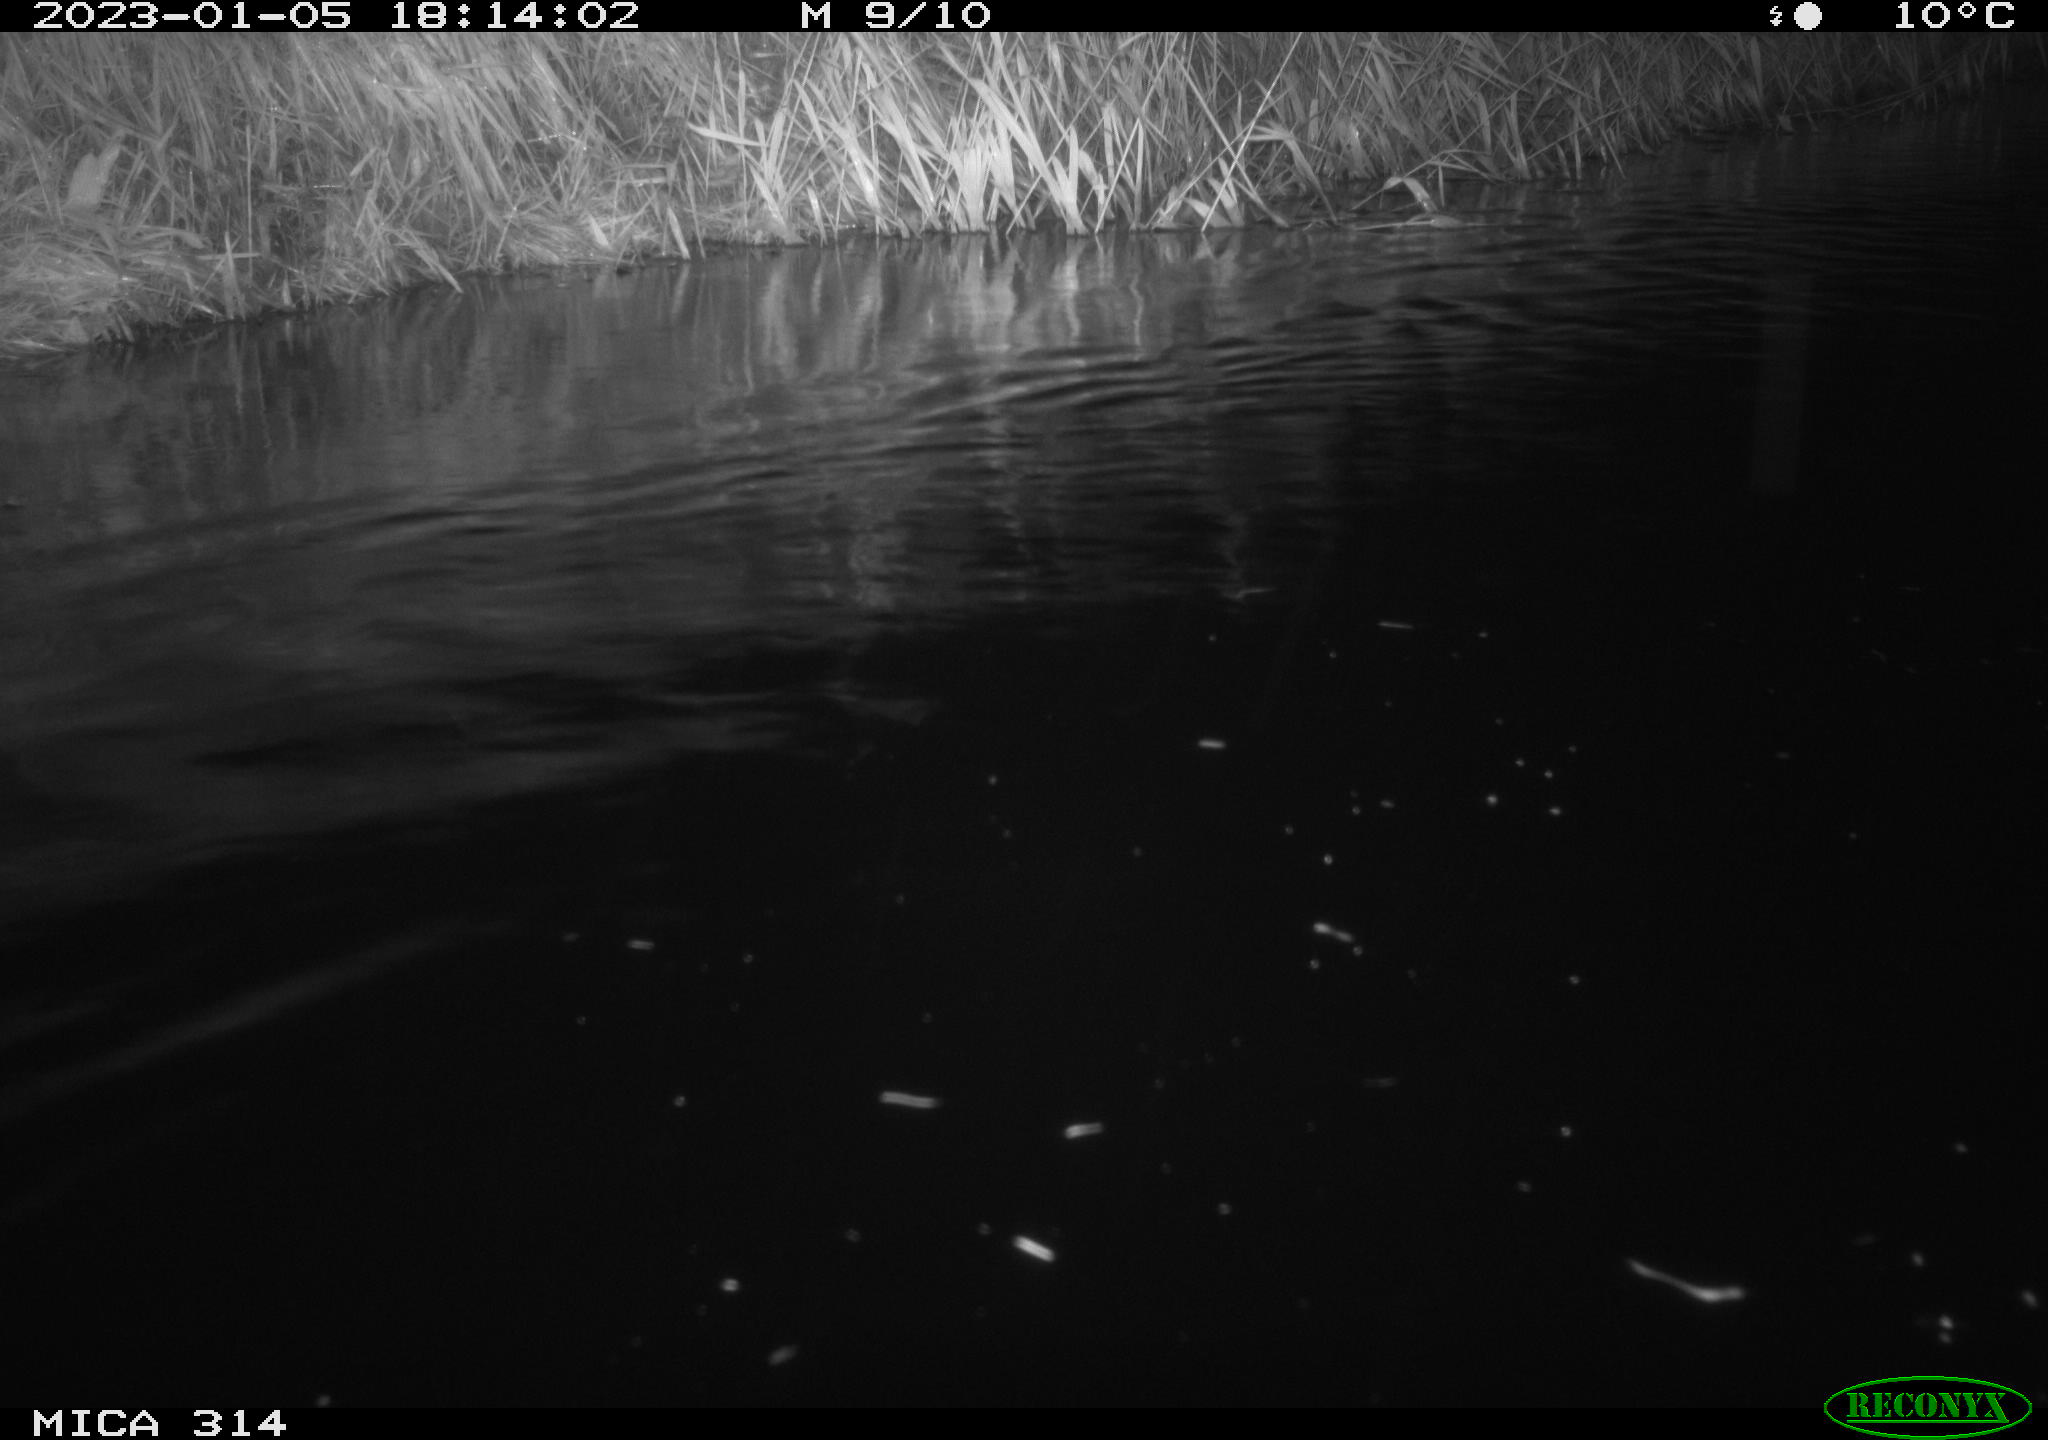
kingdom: Animalia
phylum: Chordata
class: Mammalia
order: Rodentia
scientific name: Rodentia
